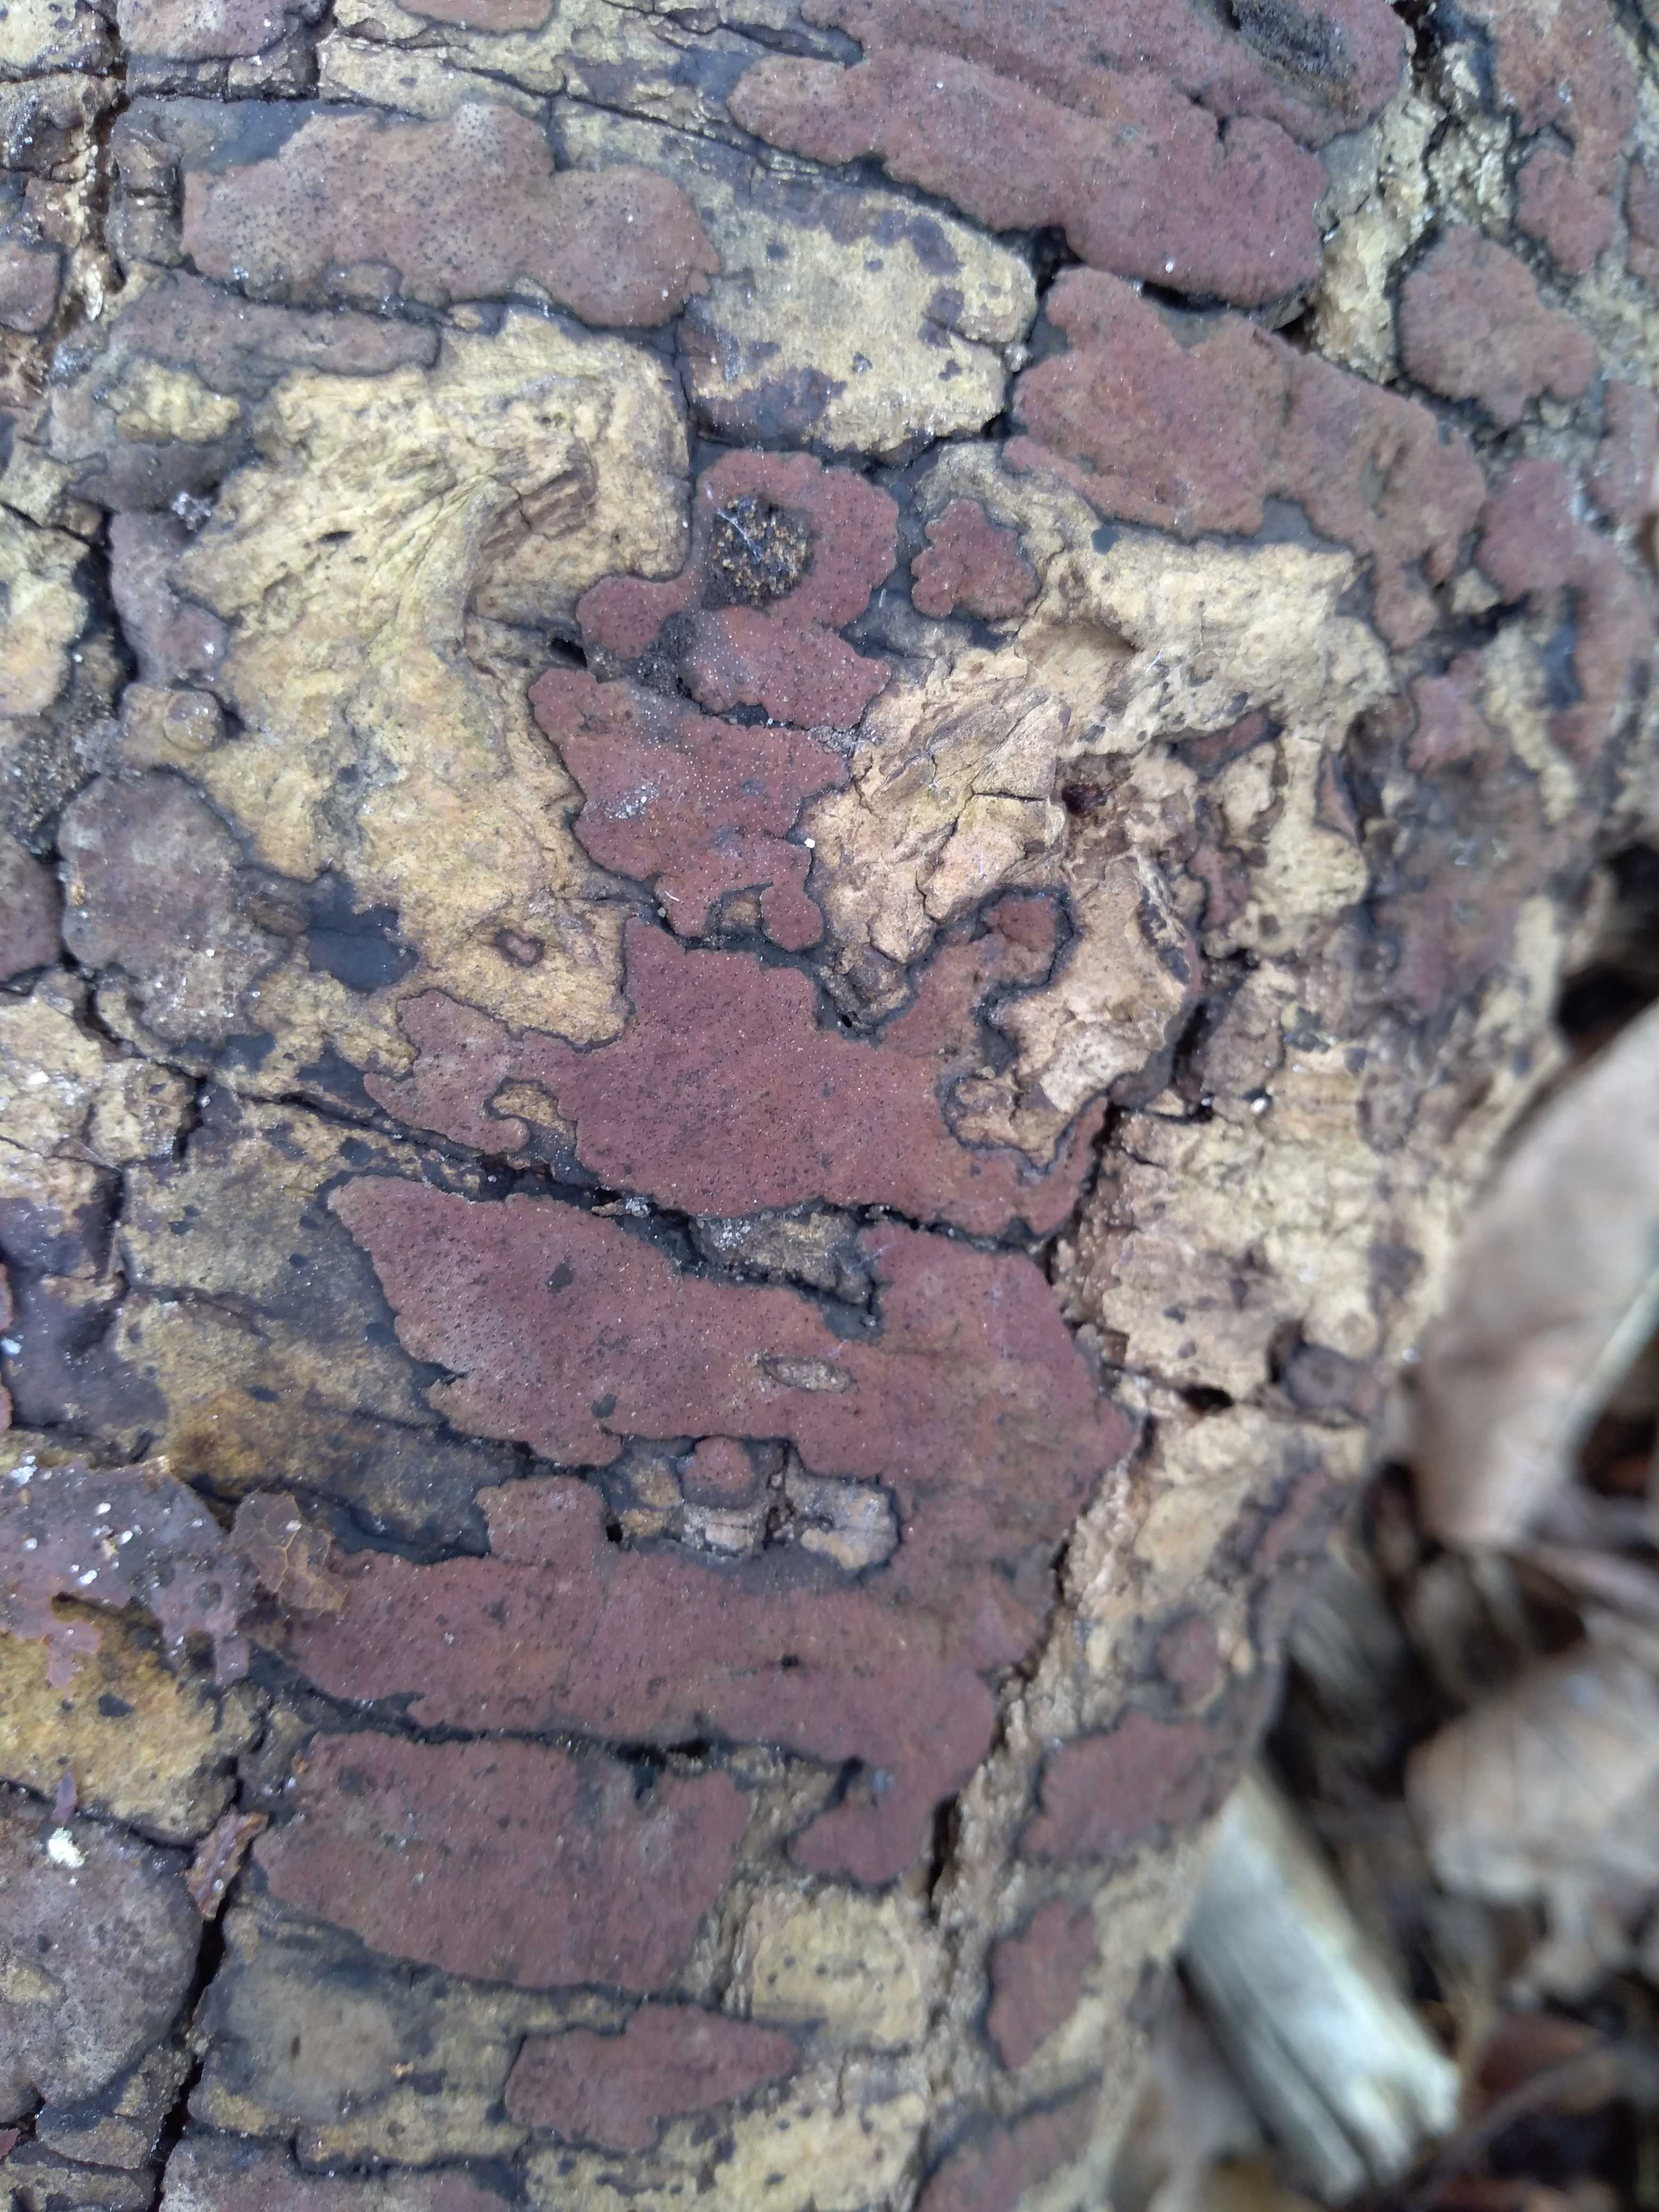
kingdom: Fungi
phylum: Ascomycota
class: Sordariomycetes
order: Xylariales
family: Hypoxylaceae
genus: Hypoxylon
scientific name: Hypoxylon petriniae
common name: nedsænket kulbær
